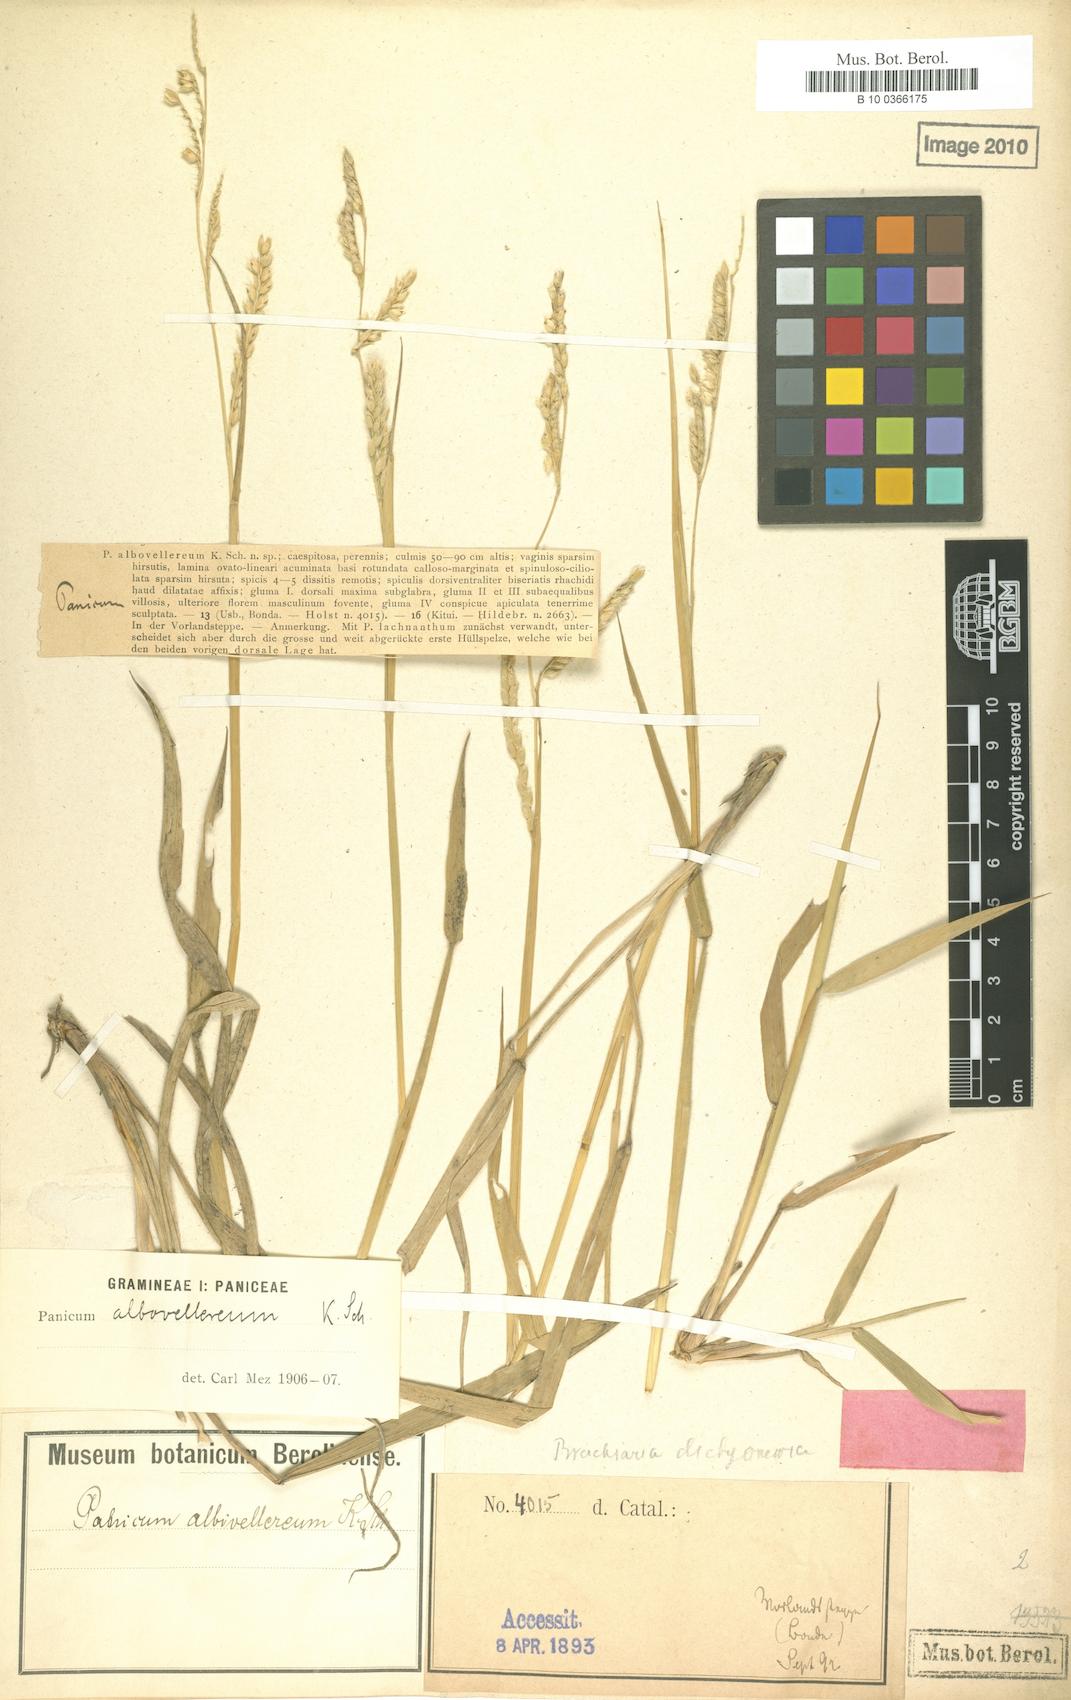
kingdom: Plantae
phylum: Tracheophyta
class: Liliopsida
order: Poales
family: Poaceae
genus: Urochloa
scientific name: Urochloa dictyoneura
